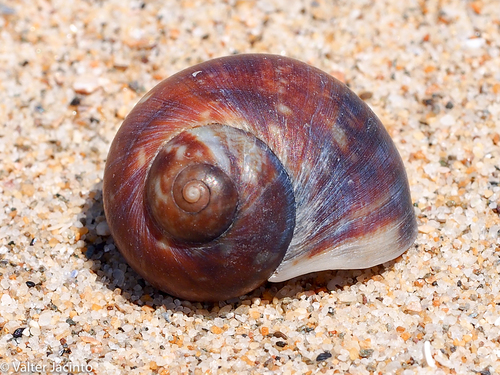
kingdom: Animalia
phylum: Mollusca
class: Gastropoda
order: Littorinimorpha
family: Naticidae
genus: Cochlis
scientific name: Cochlis vittata
